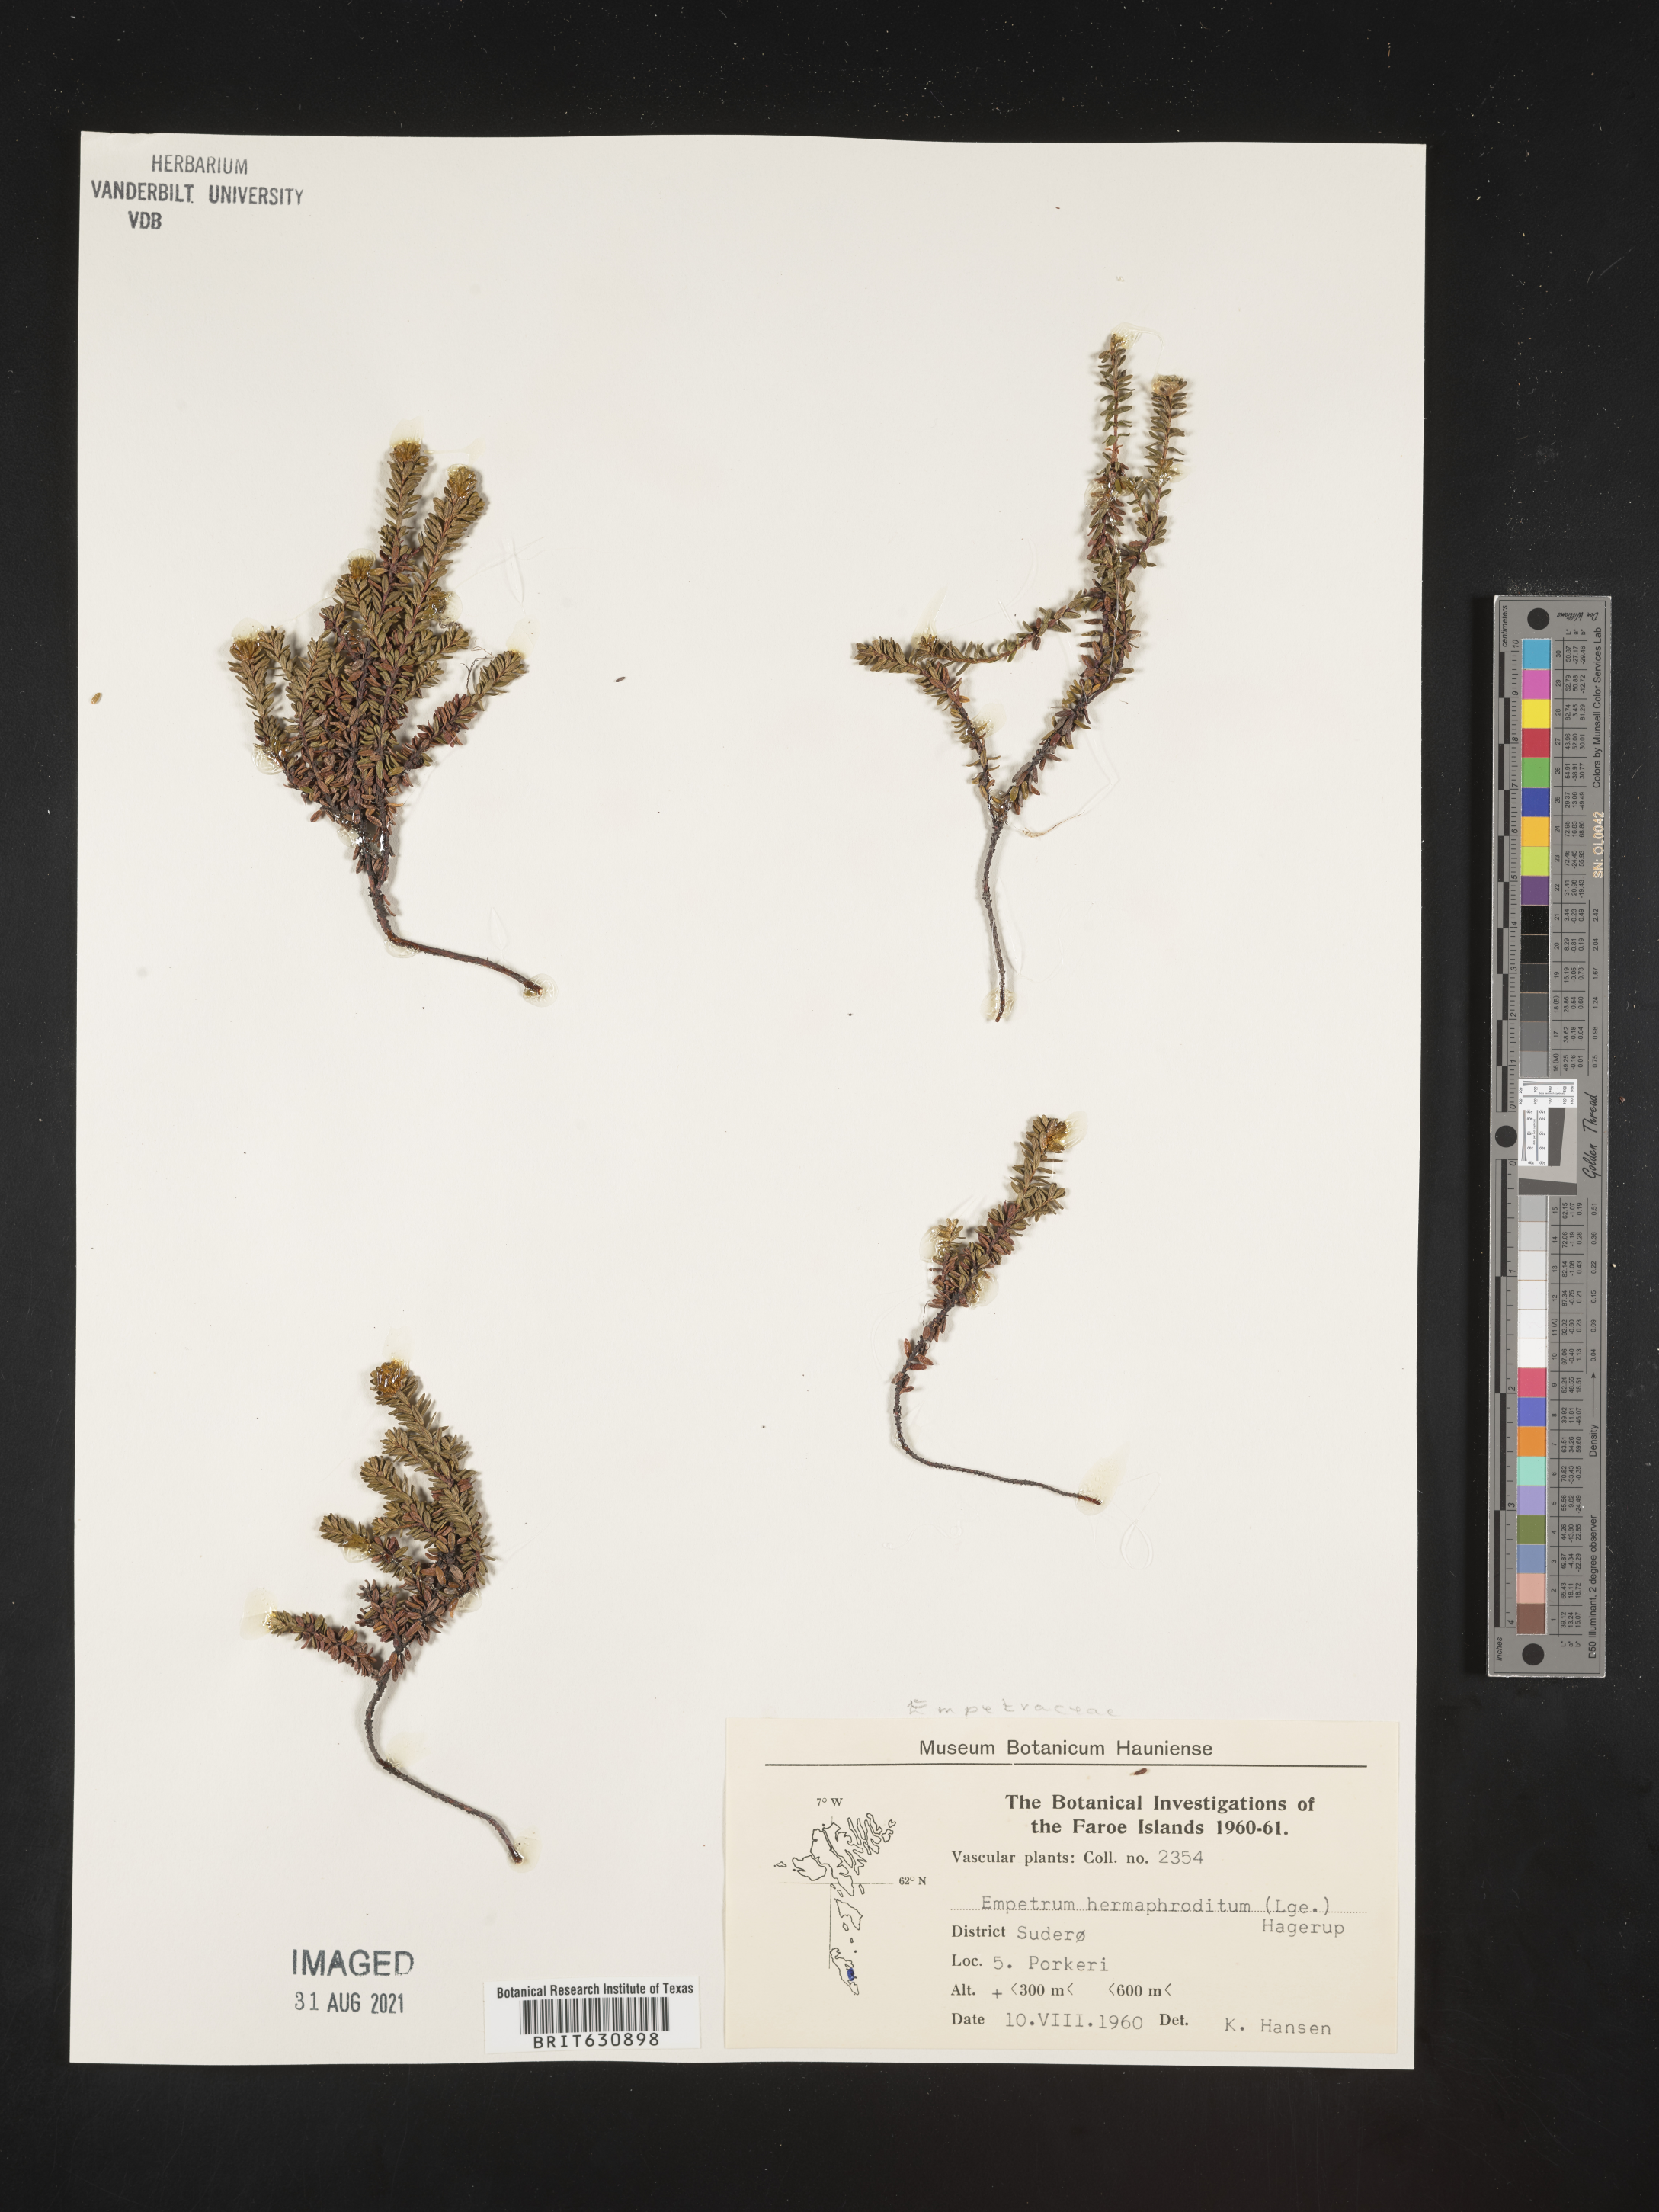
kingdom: Plantae
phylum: Tracheophyta
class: Magnoliopsida
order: Ericales
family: Ericaceae
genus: Empetrum
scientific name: Empetrum
